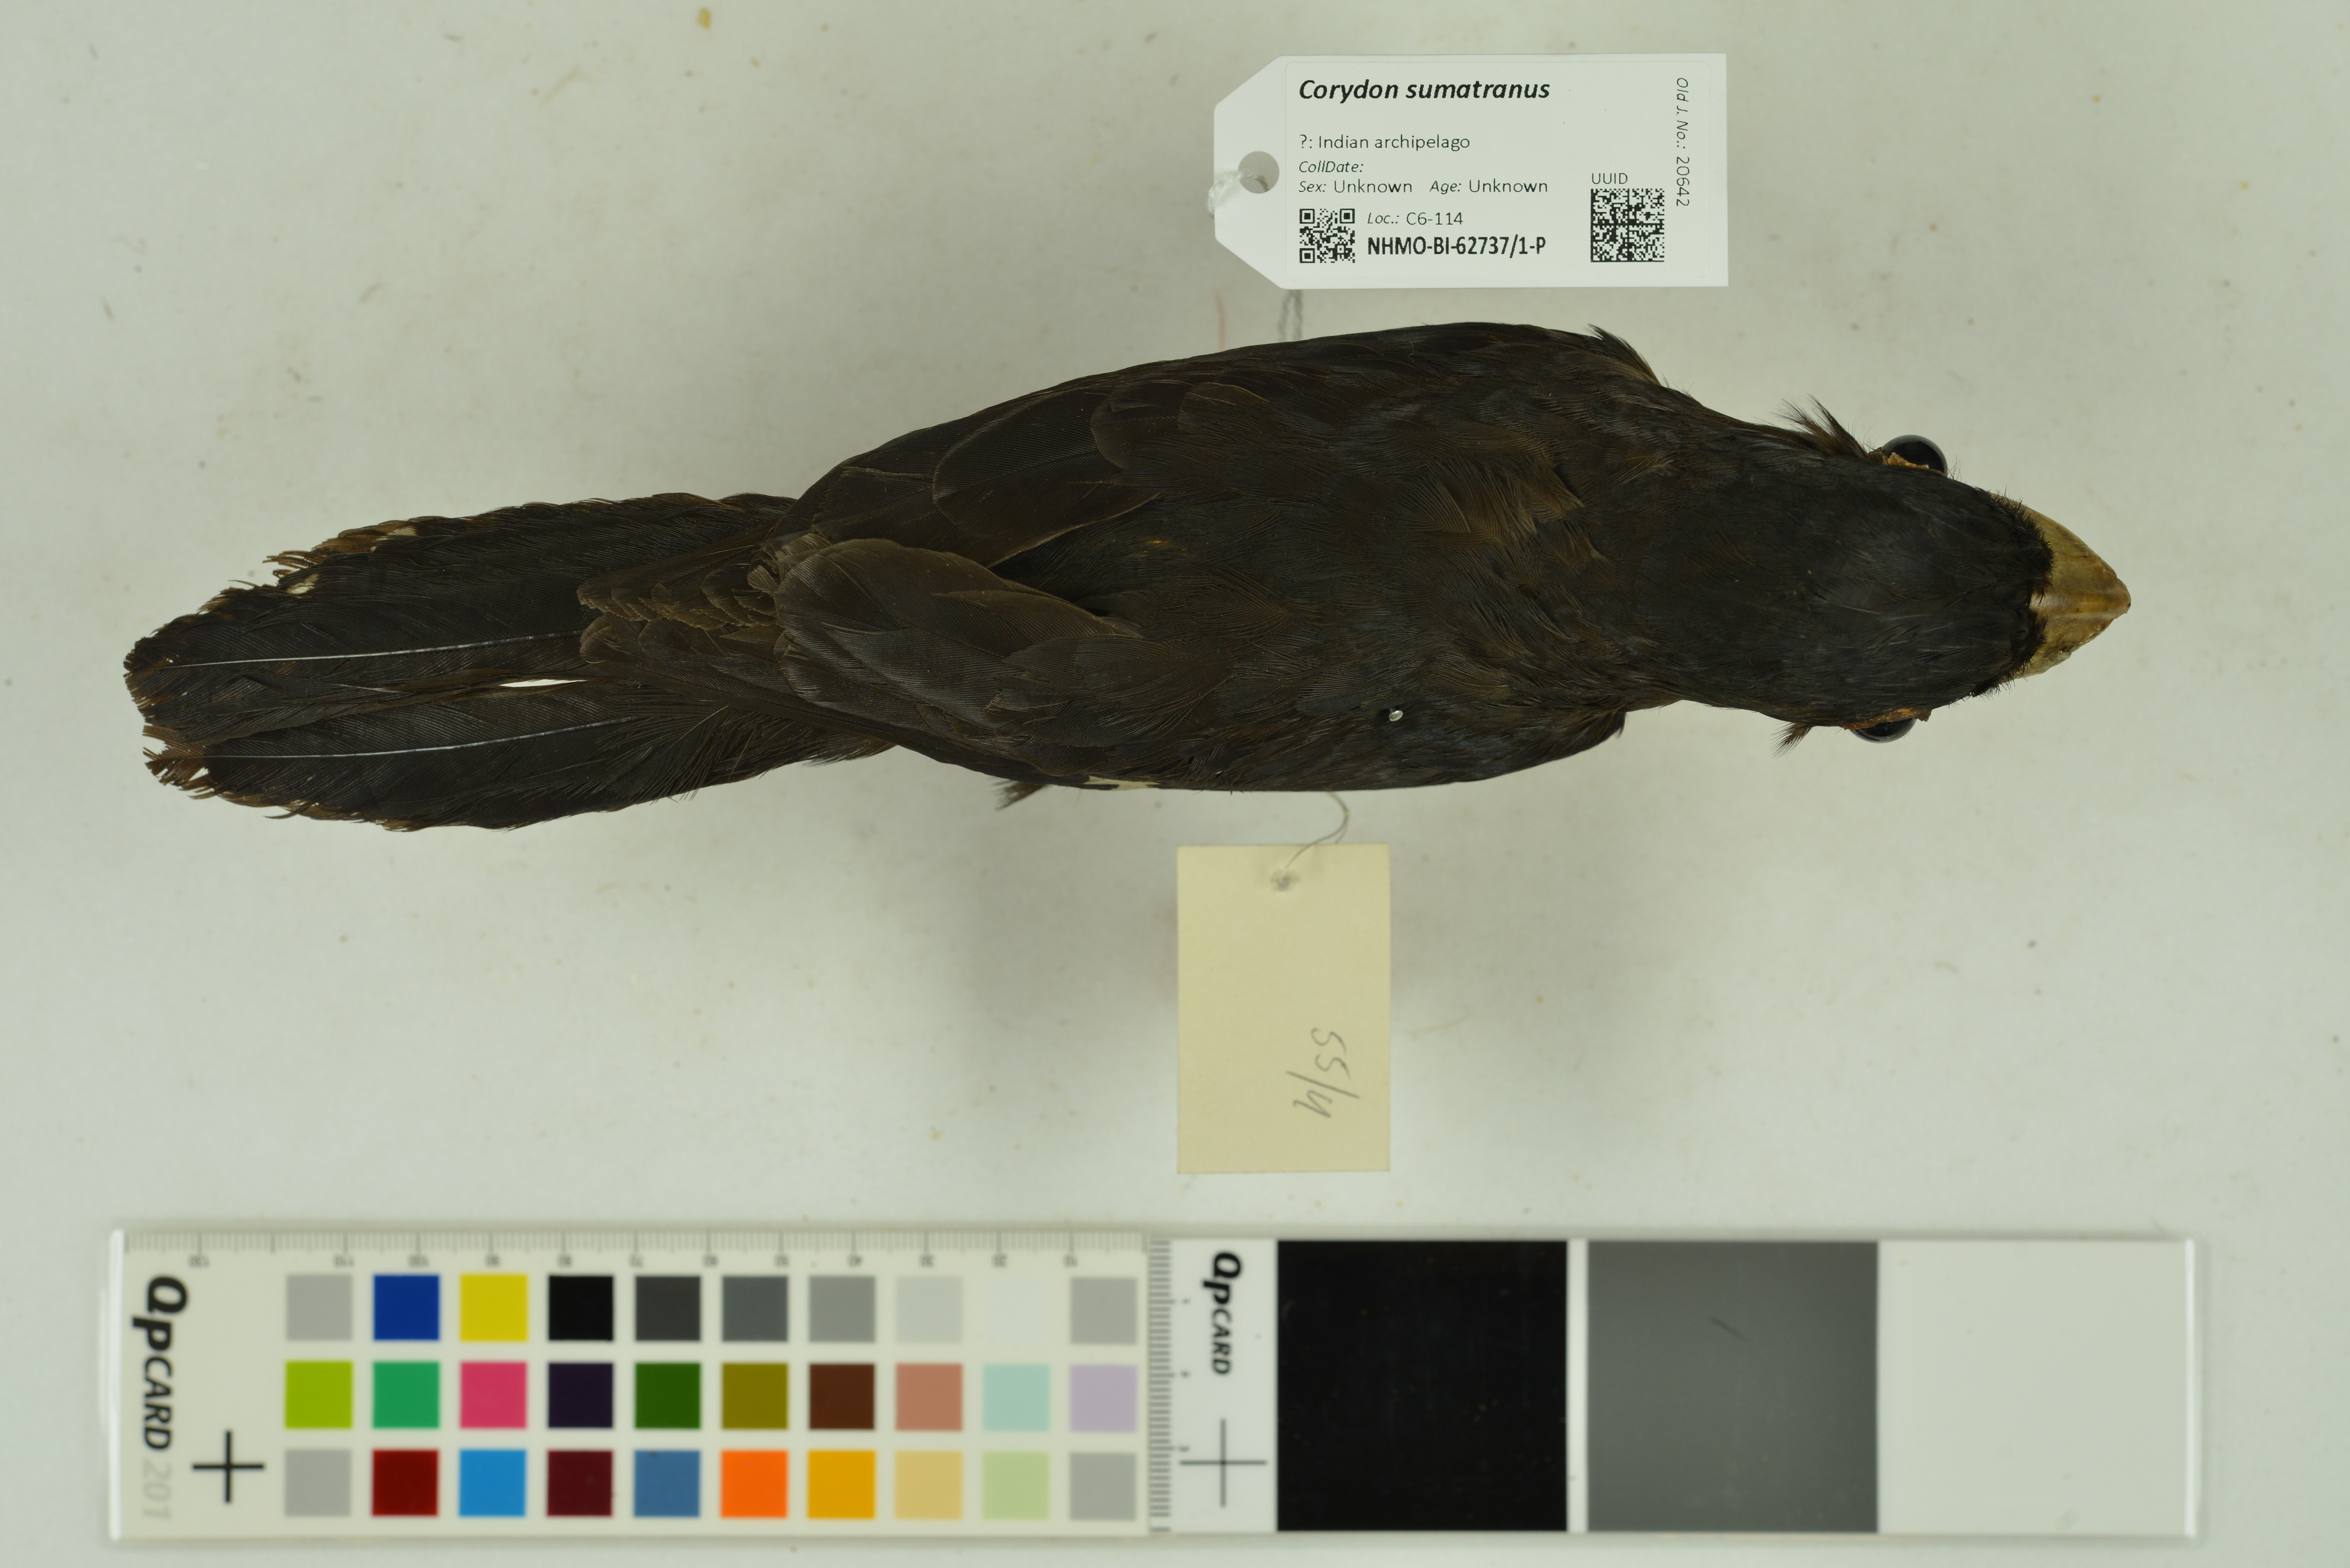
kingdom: Animalia
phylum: Chordata
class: Aves
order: Passeriformes
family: Eurylaimidae
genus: Corydon
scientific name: Corydon sumatranus
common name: Dusky broadbill
